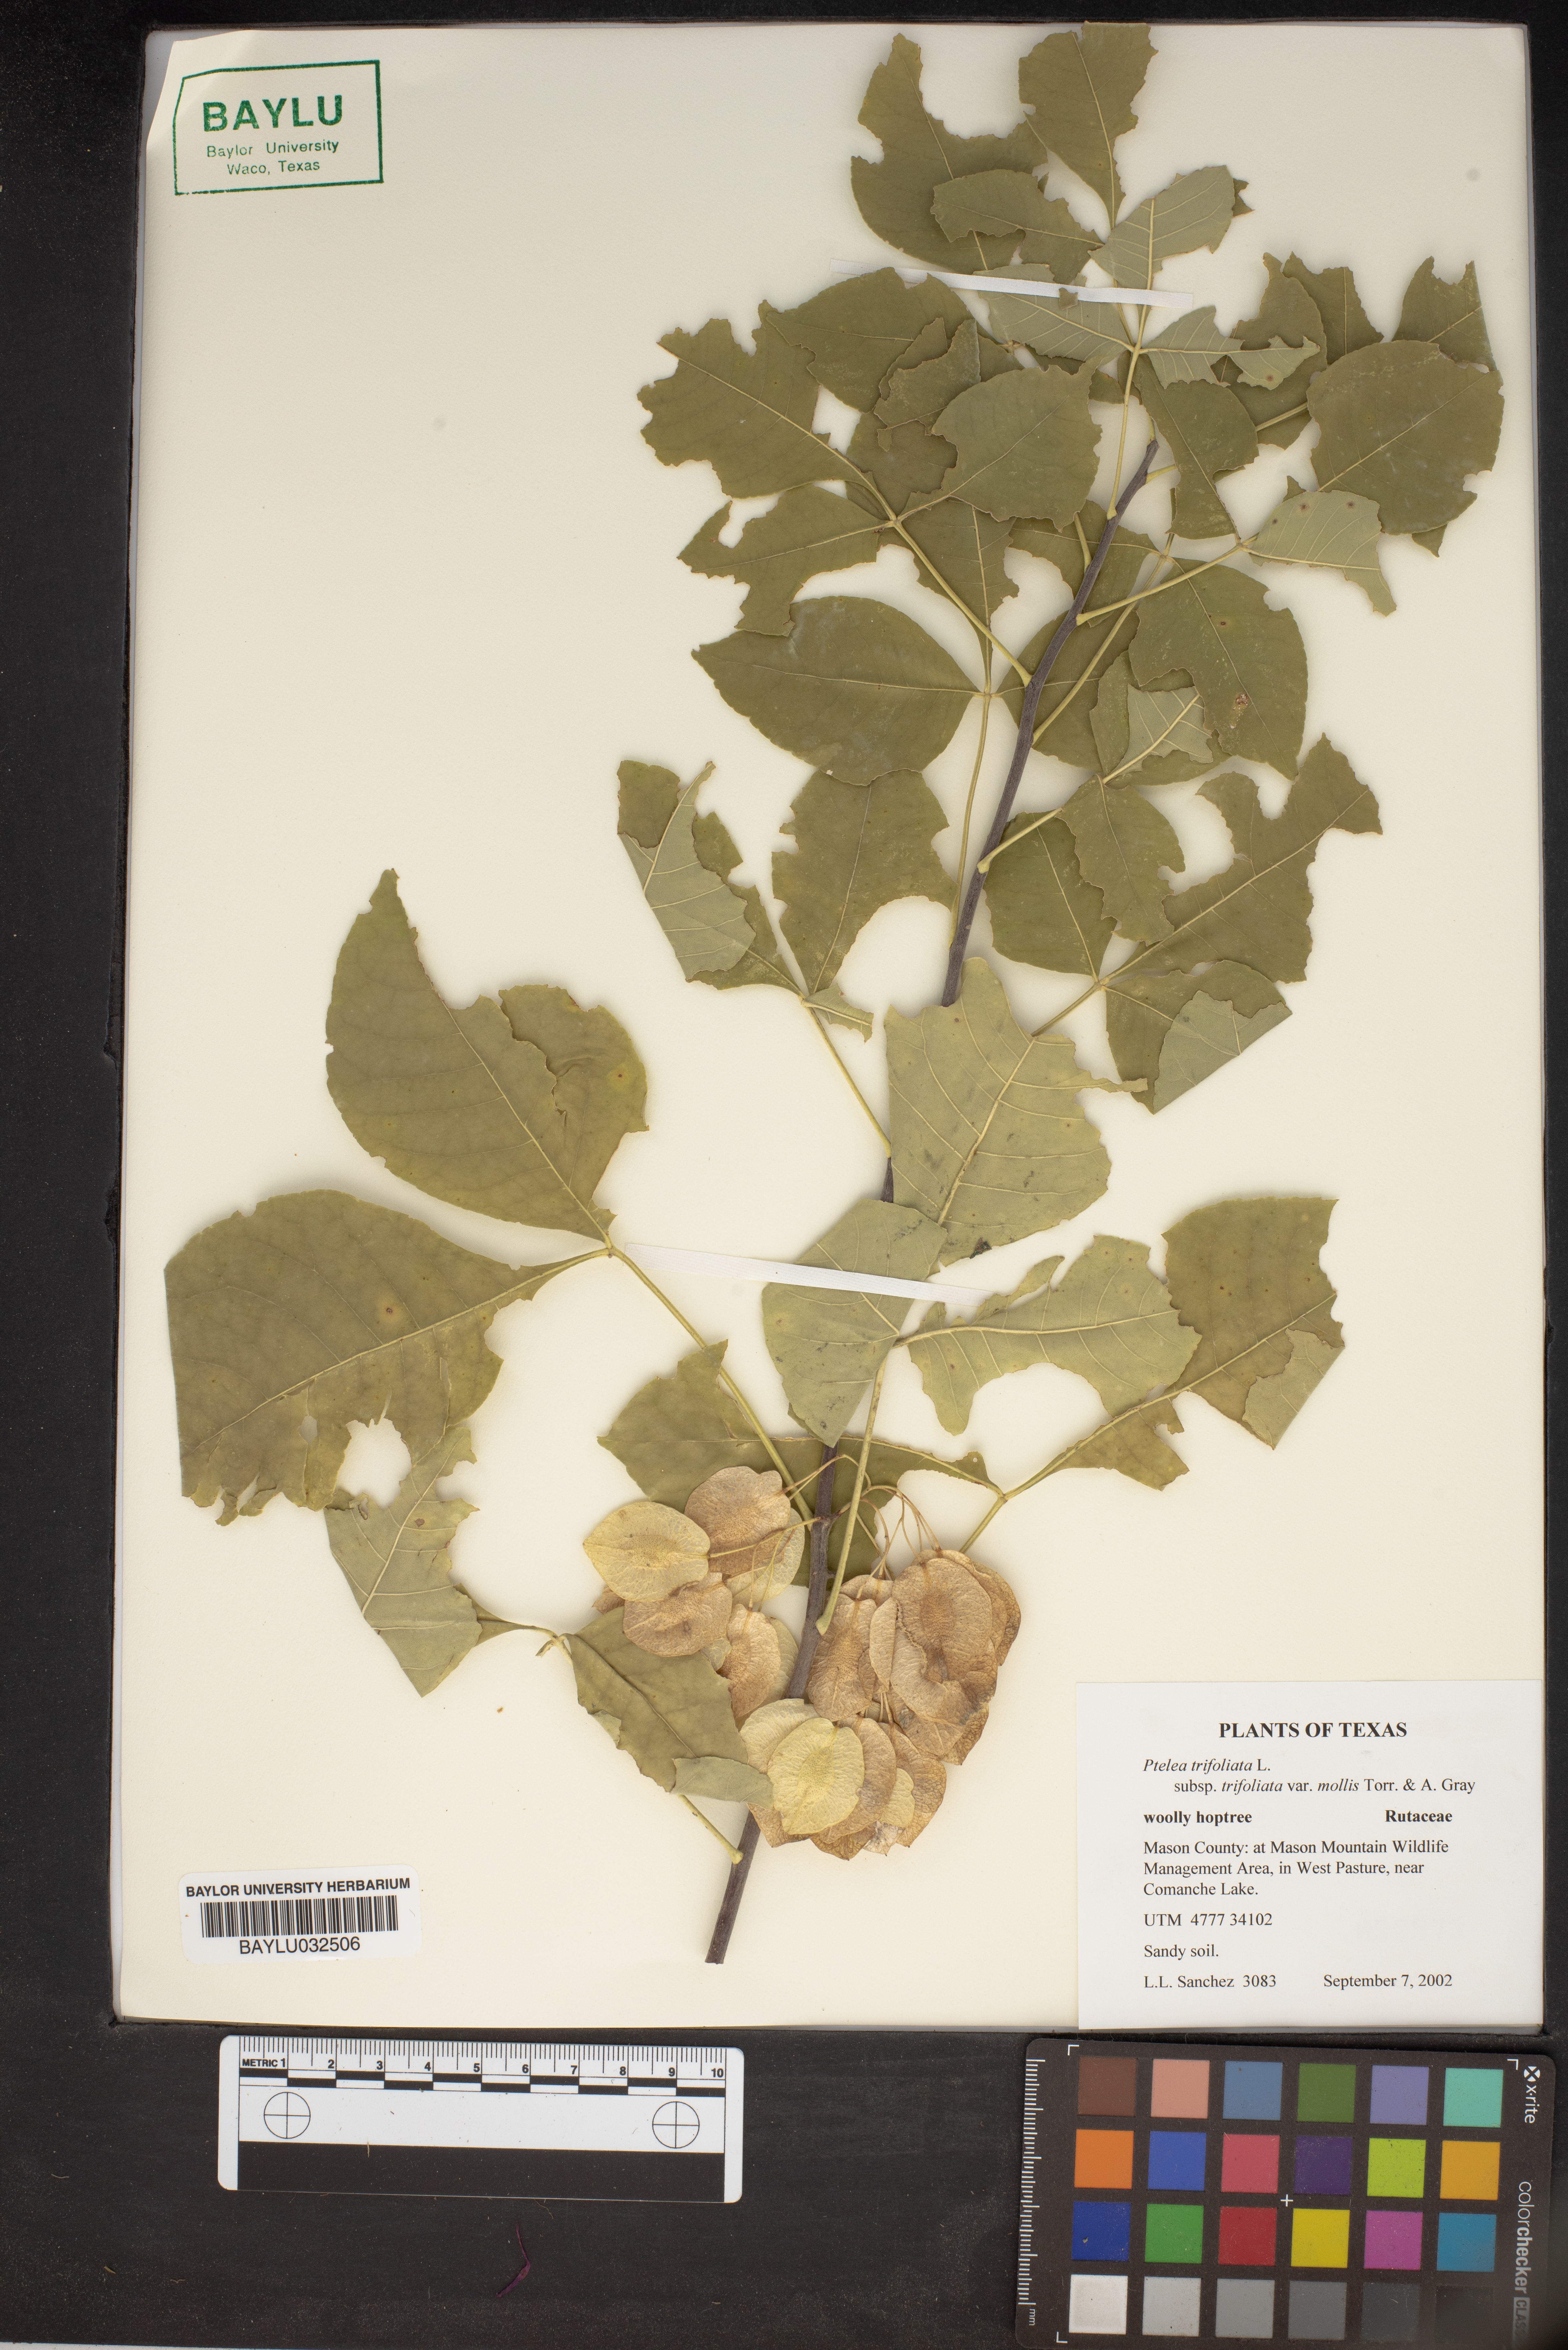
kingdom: Plantae
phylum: Tracheophyta
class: Magnoliopsida
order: Sapindales
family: Rutaceae
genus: Ptelea
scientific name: Ptelea trifoliata
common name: Common hop-tree
